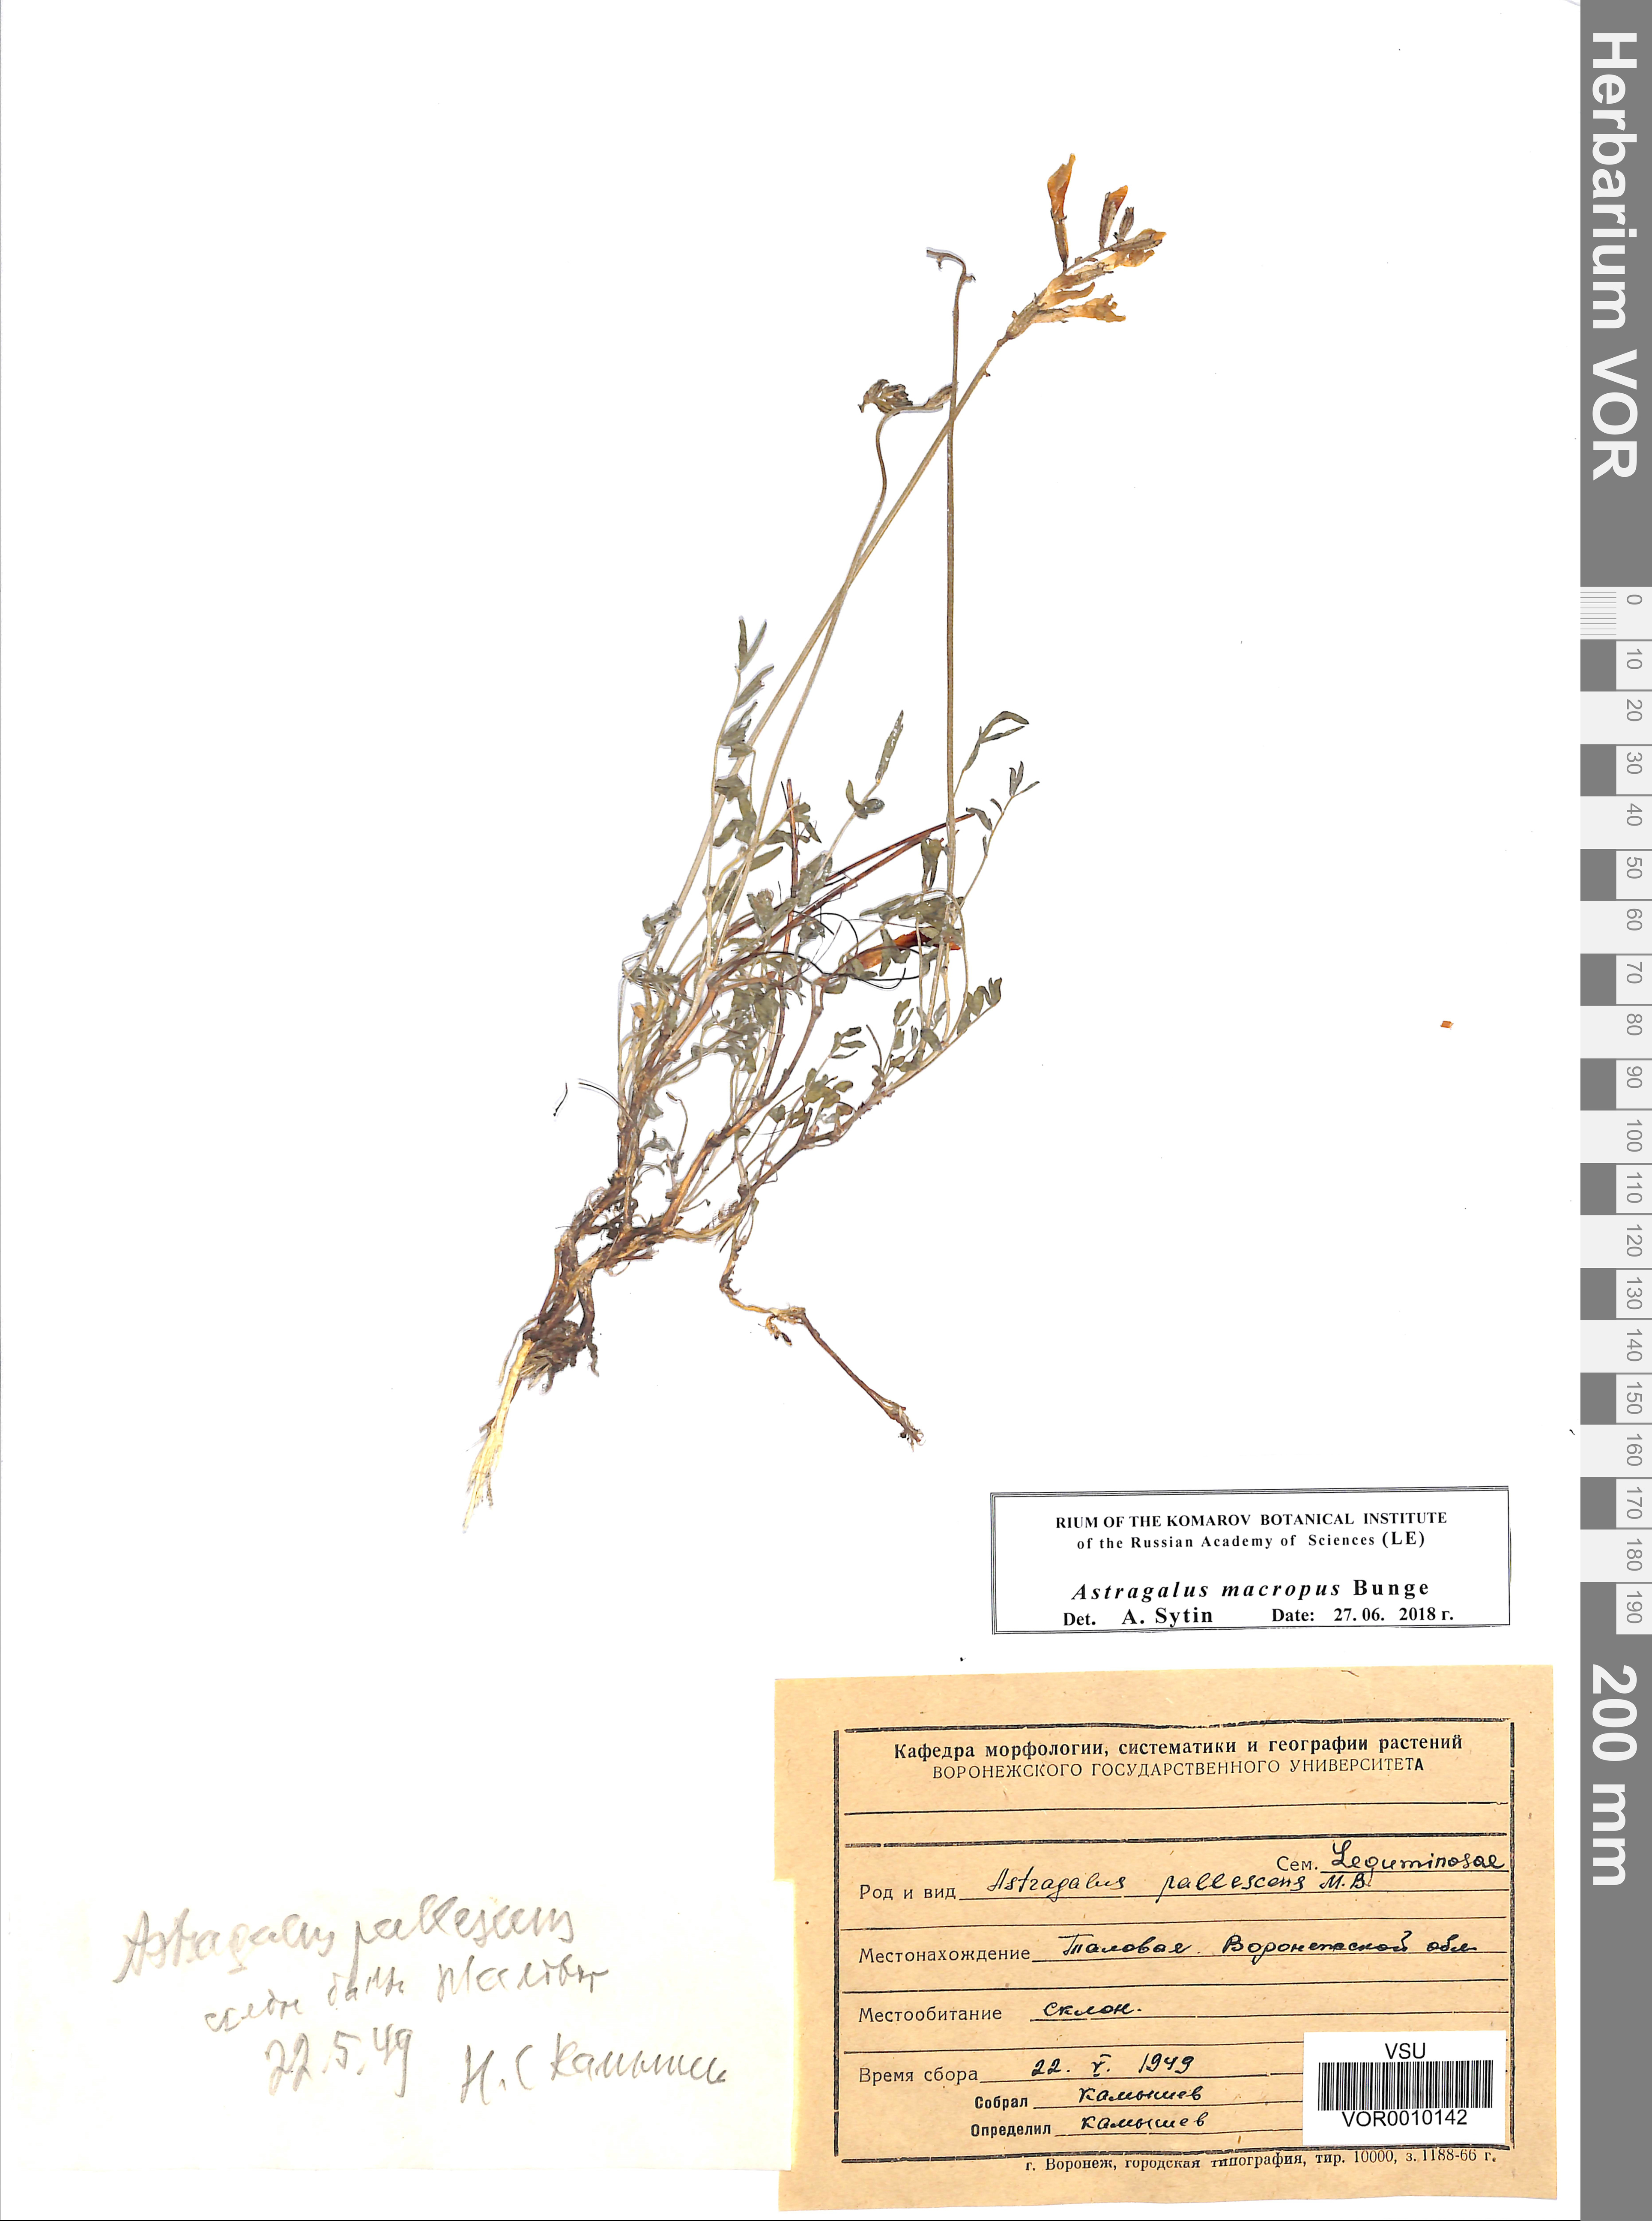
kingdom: Plantae
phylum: Tracheophyta
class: Magnoliopsida
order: Fabales
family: Fabaceae
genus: Astragalus
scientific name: Astragalus pallescens
